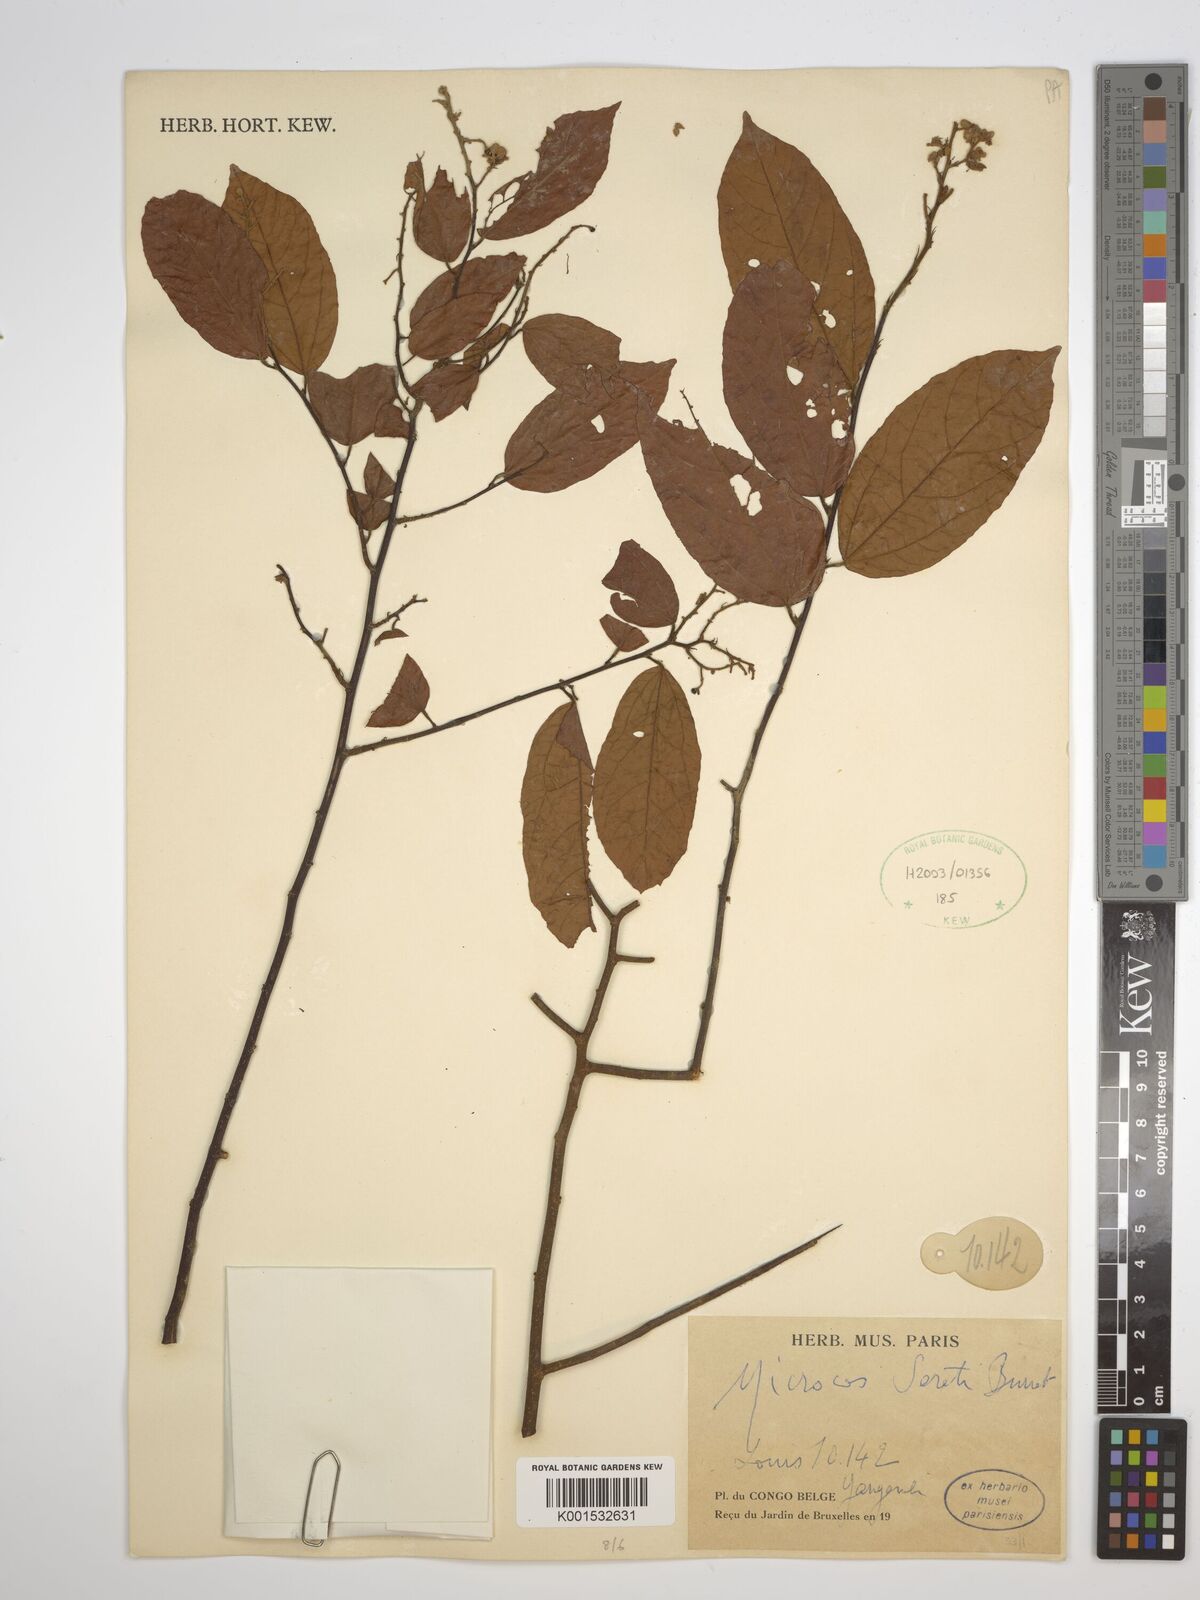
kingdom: Plantae
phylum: Tracheophyta
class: Magnoliopsida
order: Malvales
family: Malvaceae
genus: Microcos
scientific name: Microcos seretii
